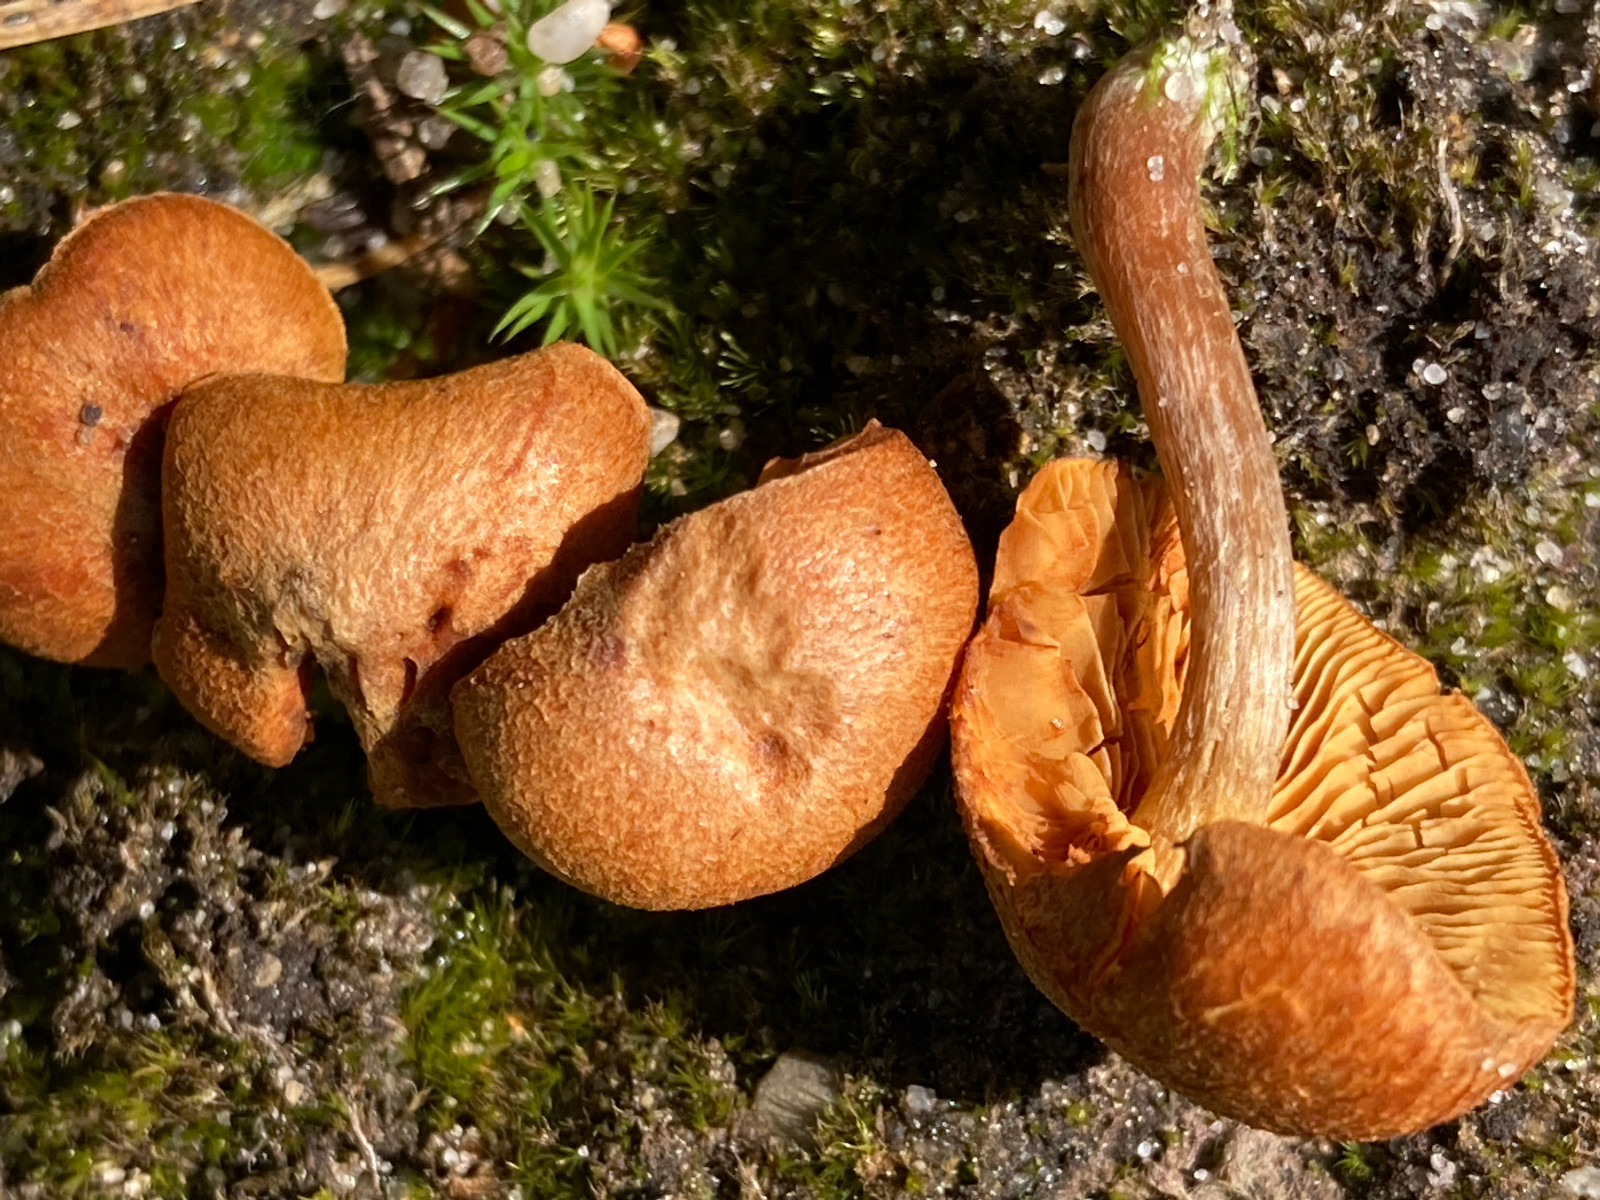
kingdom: Fungi
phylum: Basidiomycota
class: Agaricomycetes
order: Agaricales
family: Hymenogastraceae
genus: Gymnopilus
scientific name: Gymnopilus
